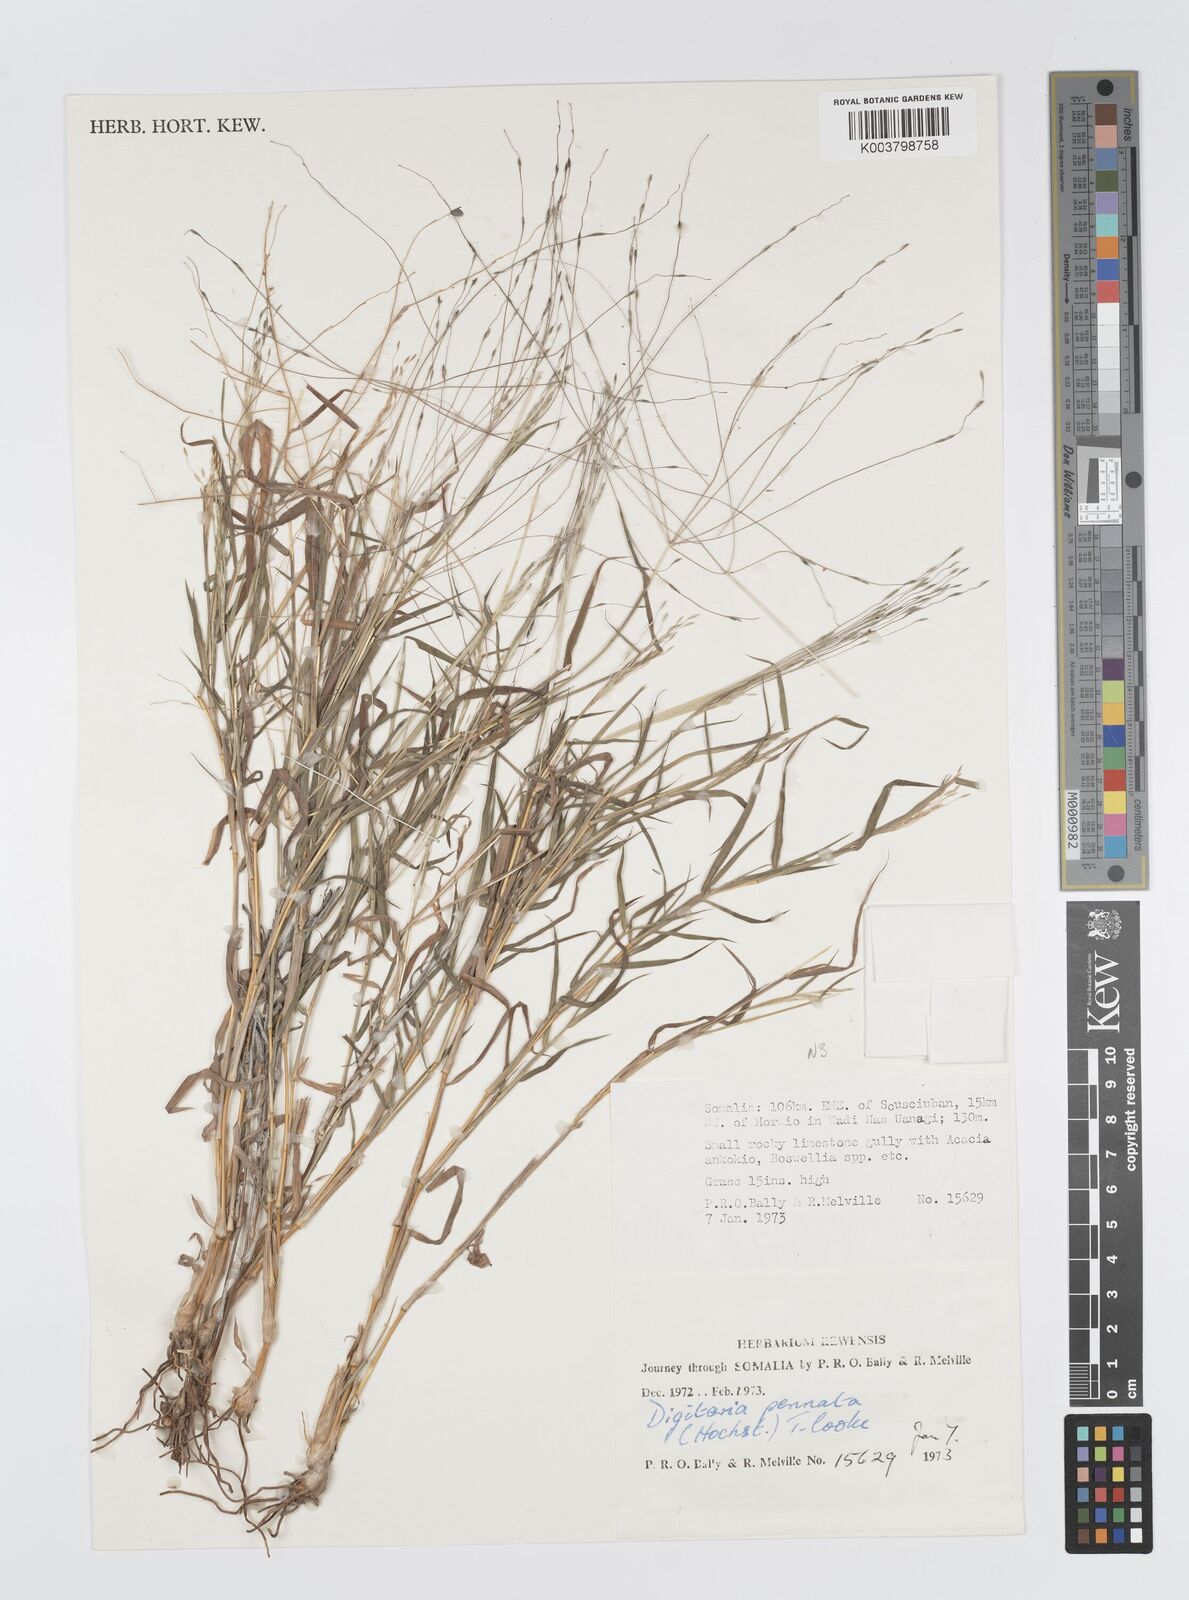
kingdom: Plantae
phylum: Tracheophyta
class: Liliopsida
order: Poales
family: Poaceae
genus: Digitaria
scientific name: Digitaria pennata
